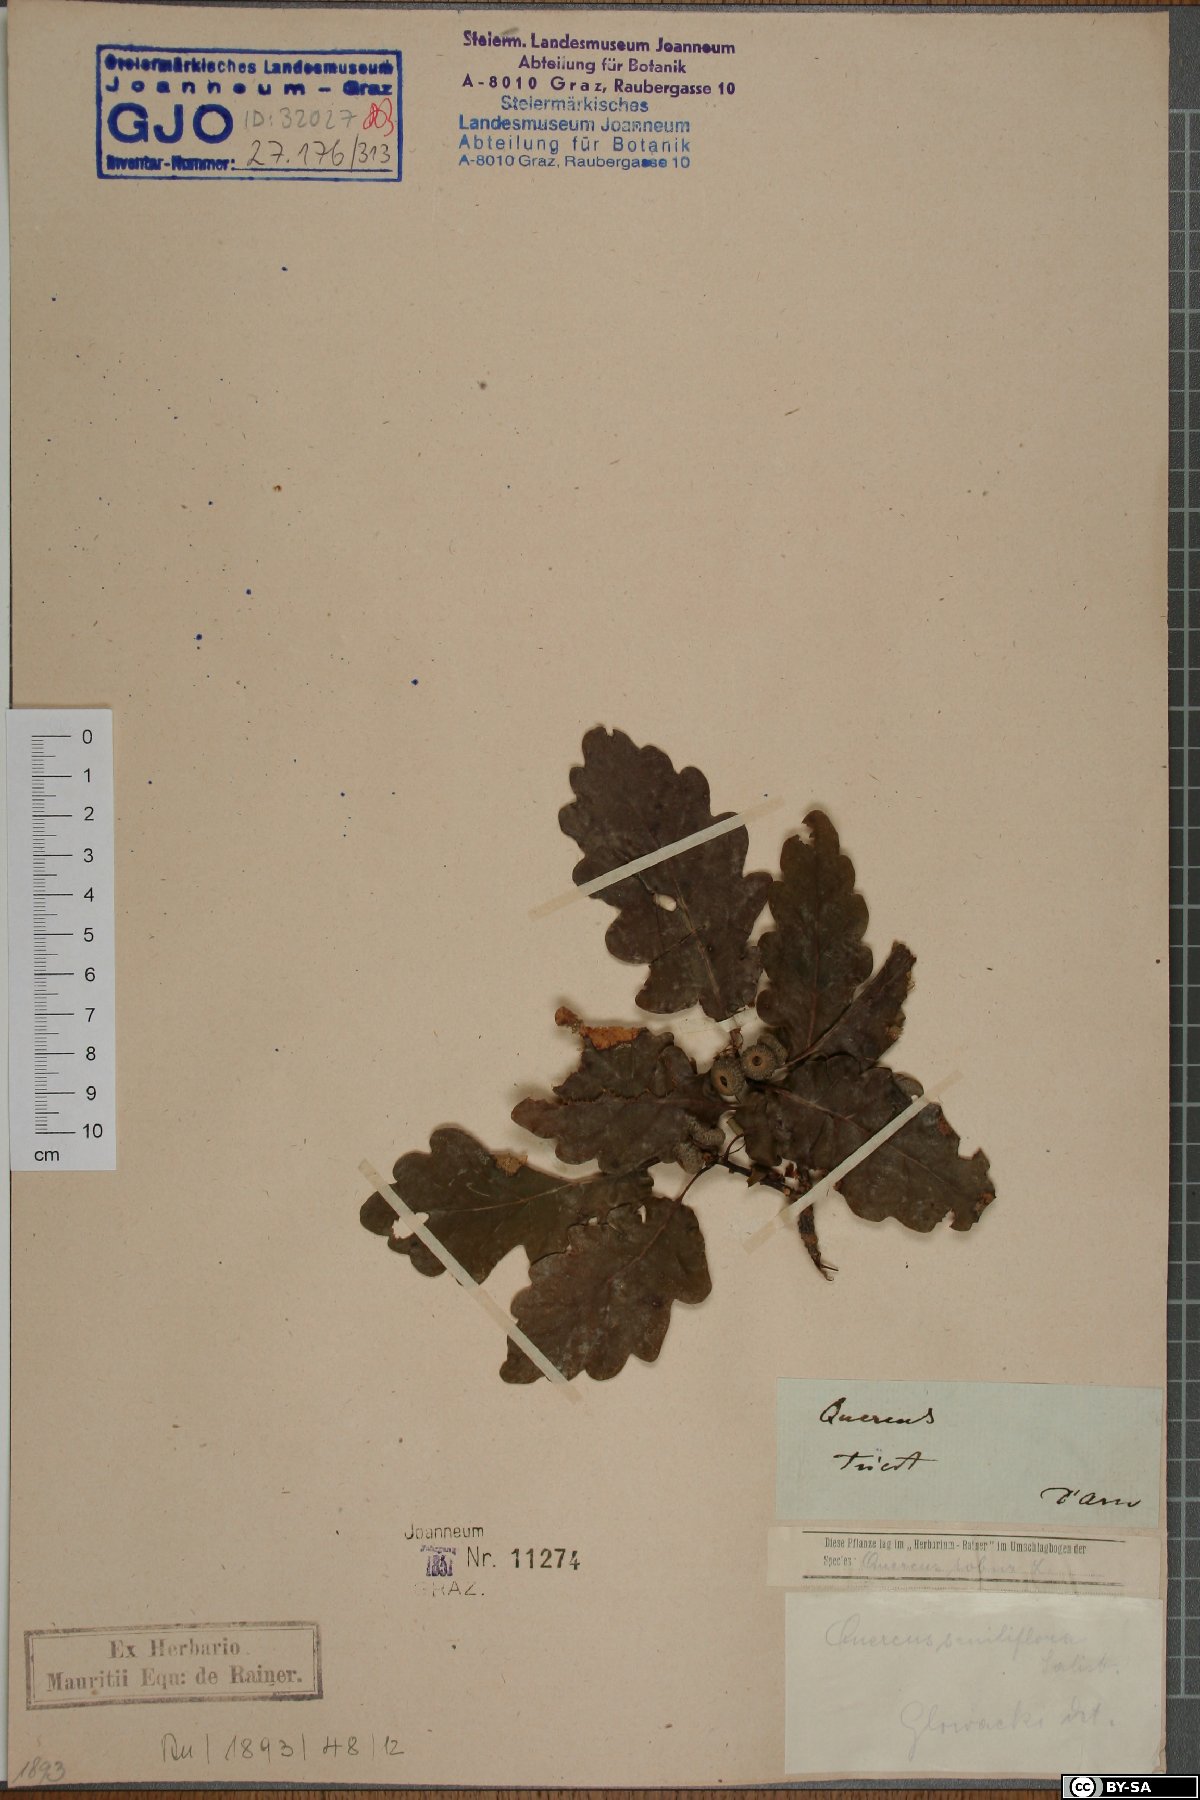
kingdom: Plantae
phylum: Tracheophyta
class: Magnoliopsida
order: Fagales
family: Fagaceae
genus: Quercus
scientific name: Quercus petraea
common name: Sessile oak
